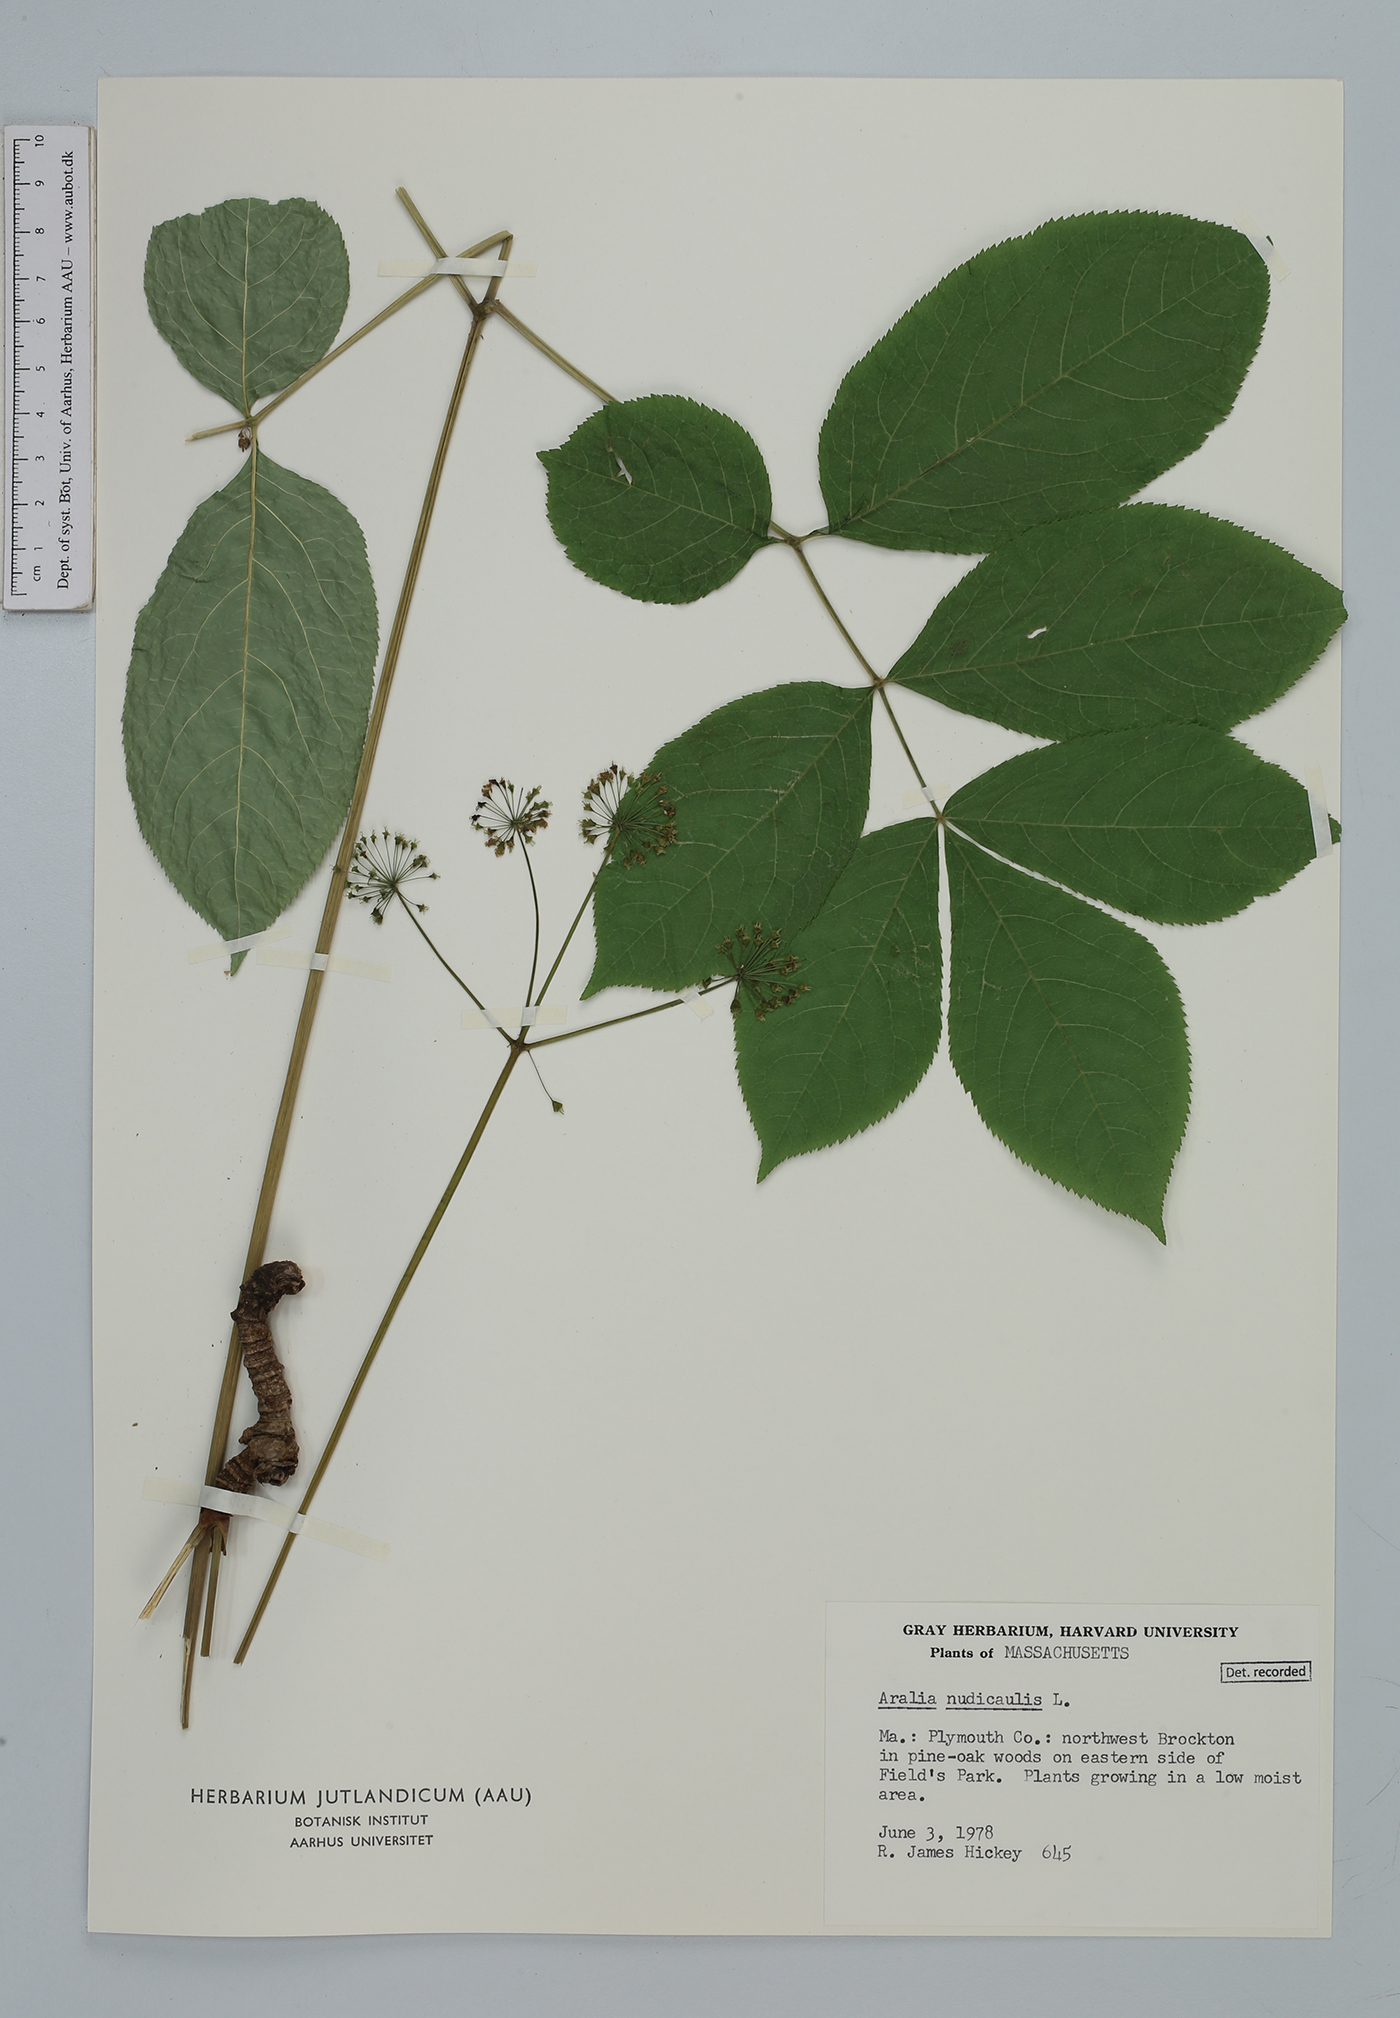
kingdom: Plantae
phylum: Tracheophyta
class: Magnoliopsida
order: Apiales
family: Araliaceae
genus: Aralia
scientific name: Aralia nudicaulis
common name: Wild sarsaparilla
